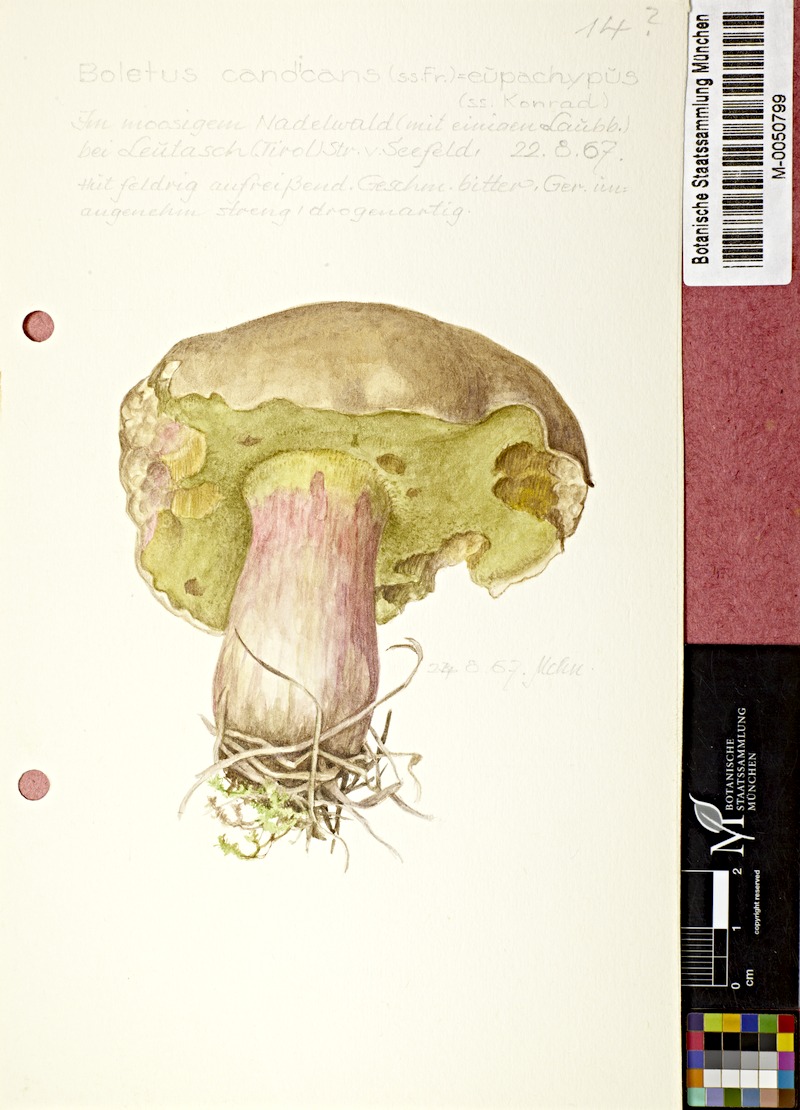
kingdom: Fungi
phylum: Basidiomycota
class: Agaricomycetes
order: Boletales
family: Boletaceae
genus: Caloboletus
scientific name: Caloboletus calopus
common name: Bitter beech bolete
